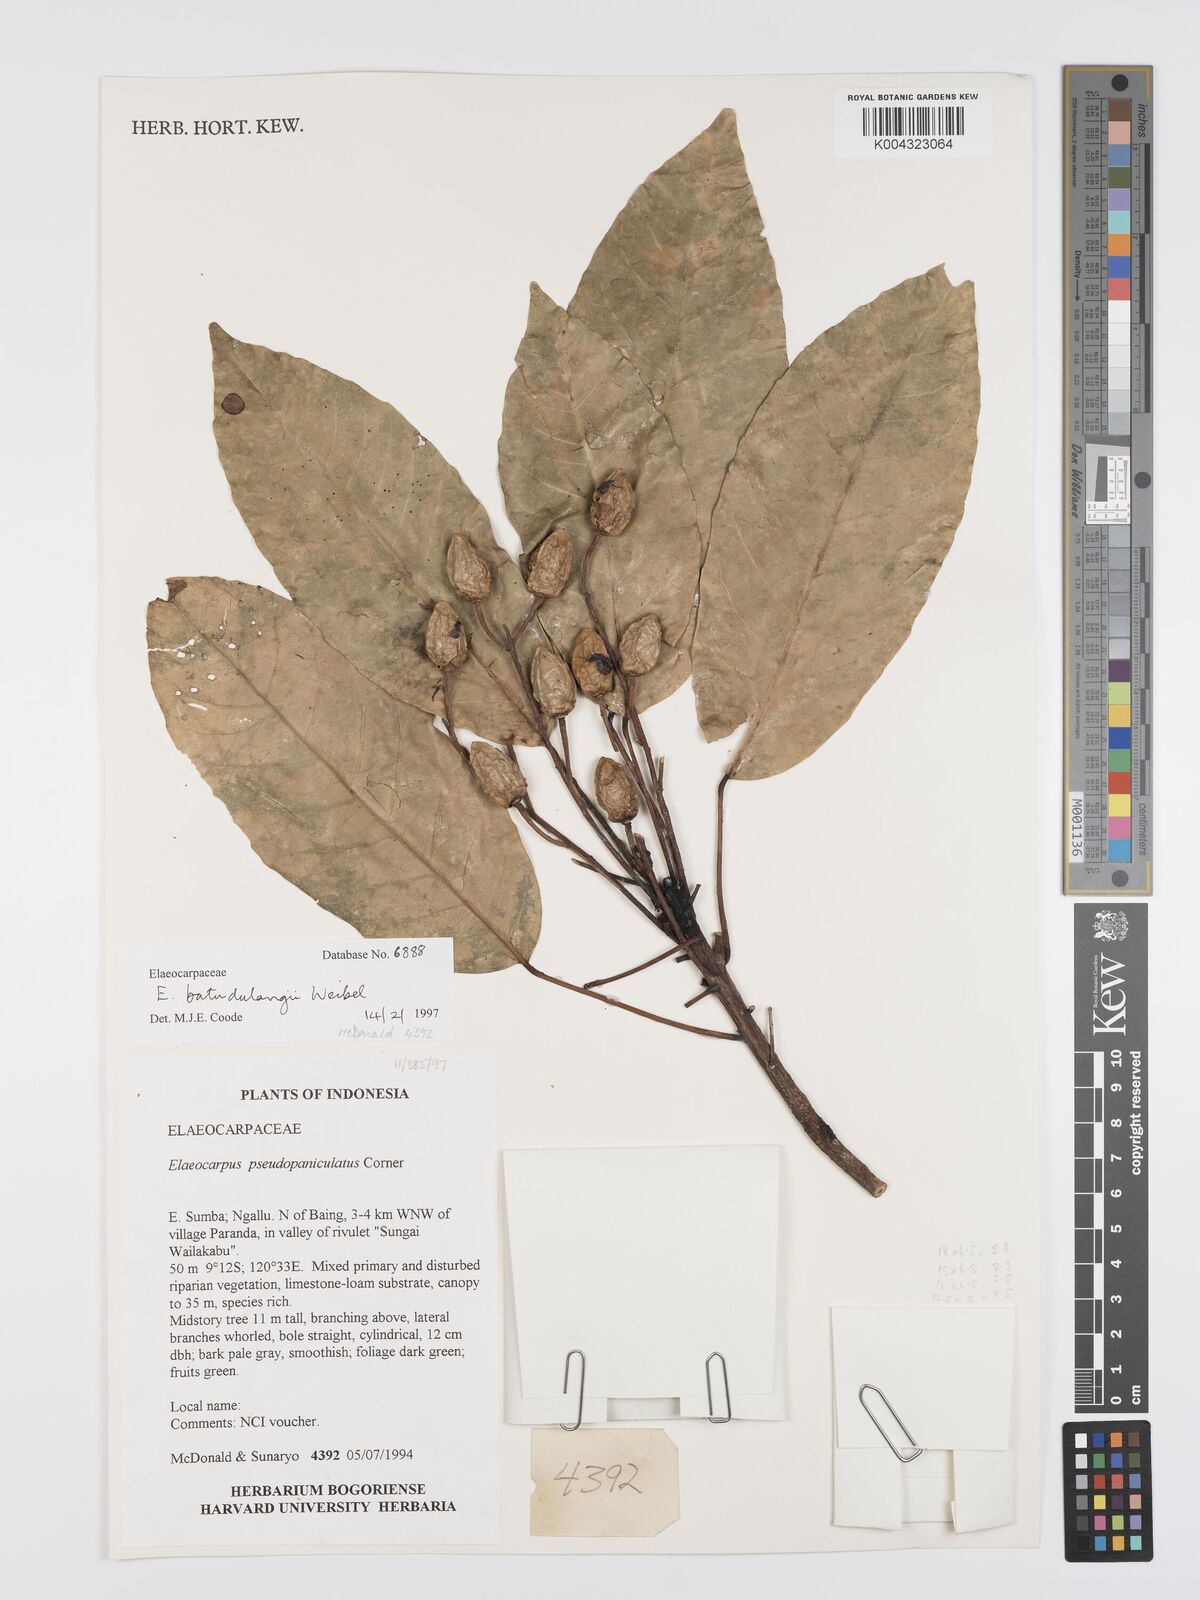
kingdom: Plantae
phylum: Tracheophyta
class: Magnoliopsida
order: Oxalidales
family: Elaeocarpaceae
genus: Elaeocarpus
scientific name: Elaeocarpus
